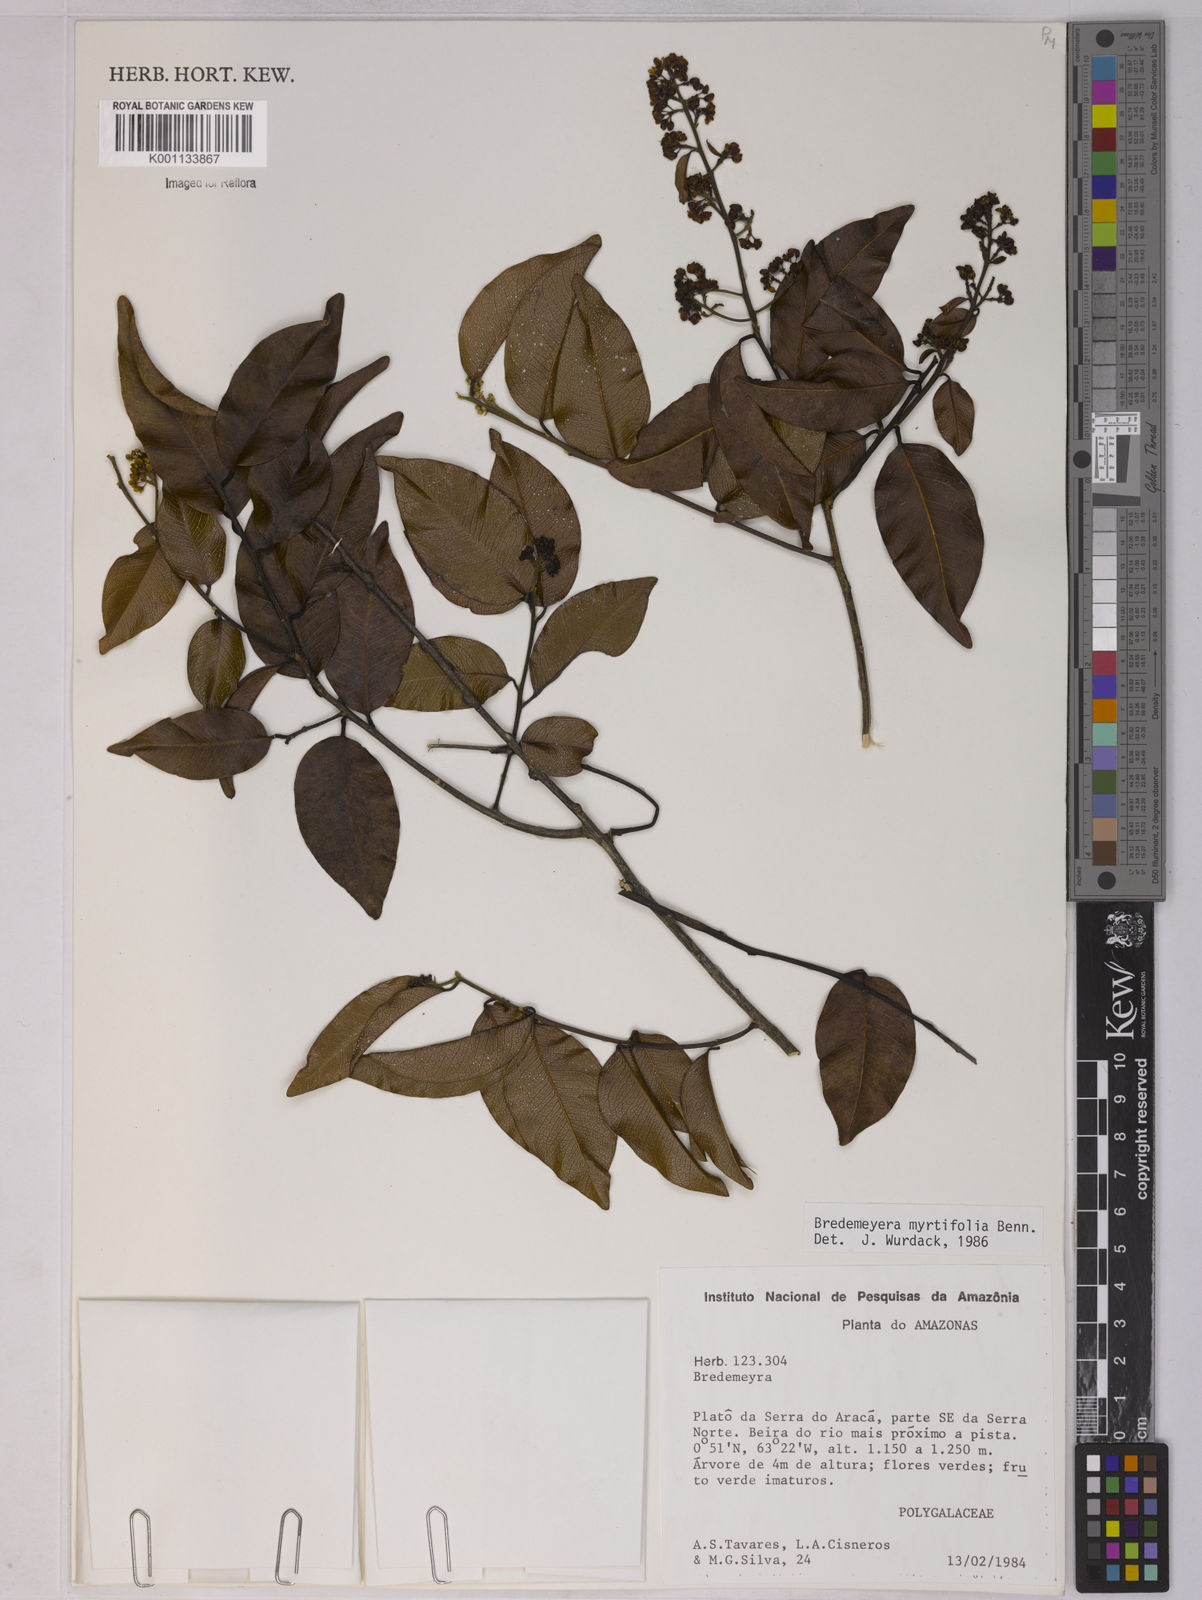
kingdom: Plantae
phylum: Tracheophyta
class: Magnoliopsida
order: Fabales
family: Polygalaceae
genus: Bredemeyera
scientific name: Bredemeyera
